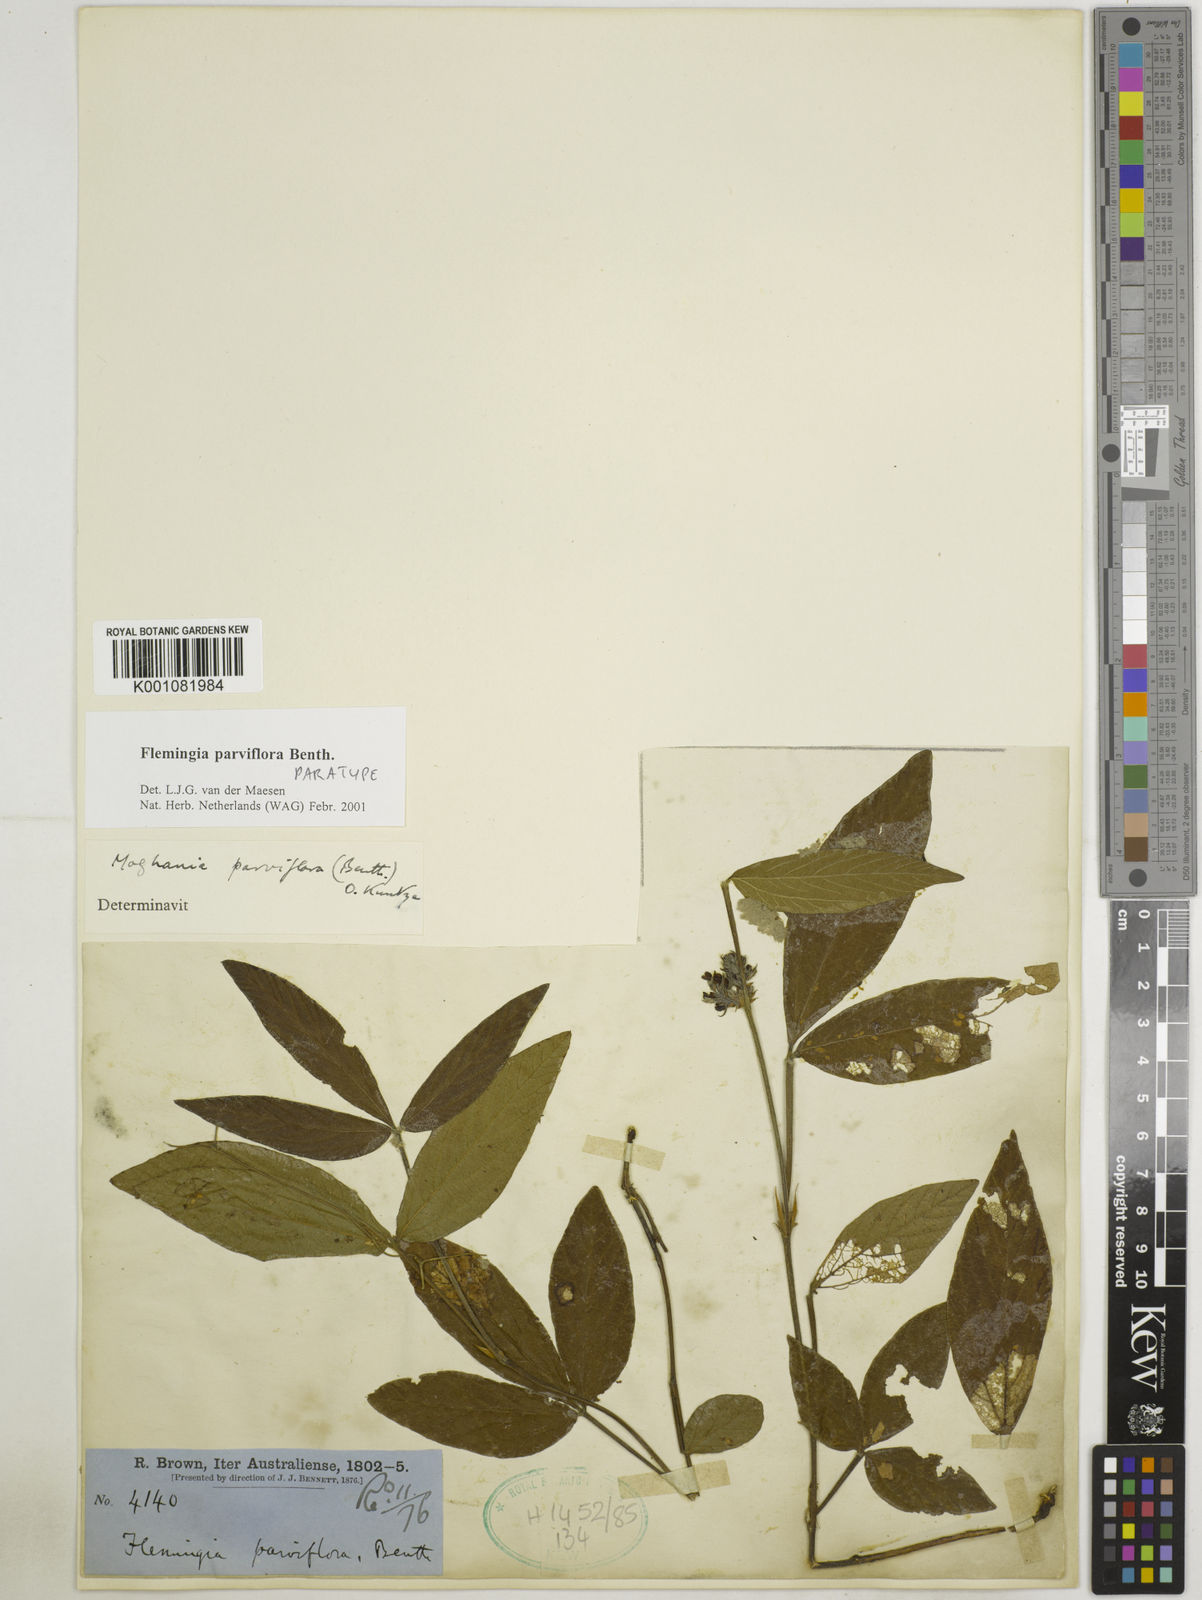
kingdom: Plantae
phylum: Tracheophyta
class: Magnoliopsida
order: Fabales
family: Fabaceae
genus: Flemingia
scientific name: Flemingia parviflora
